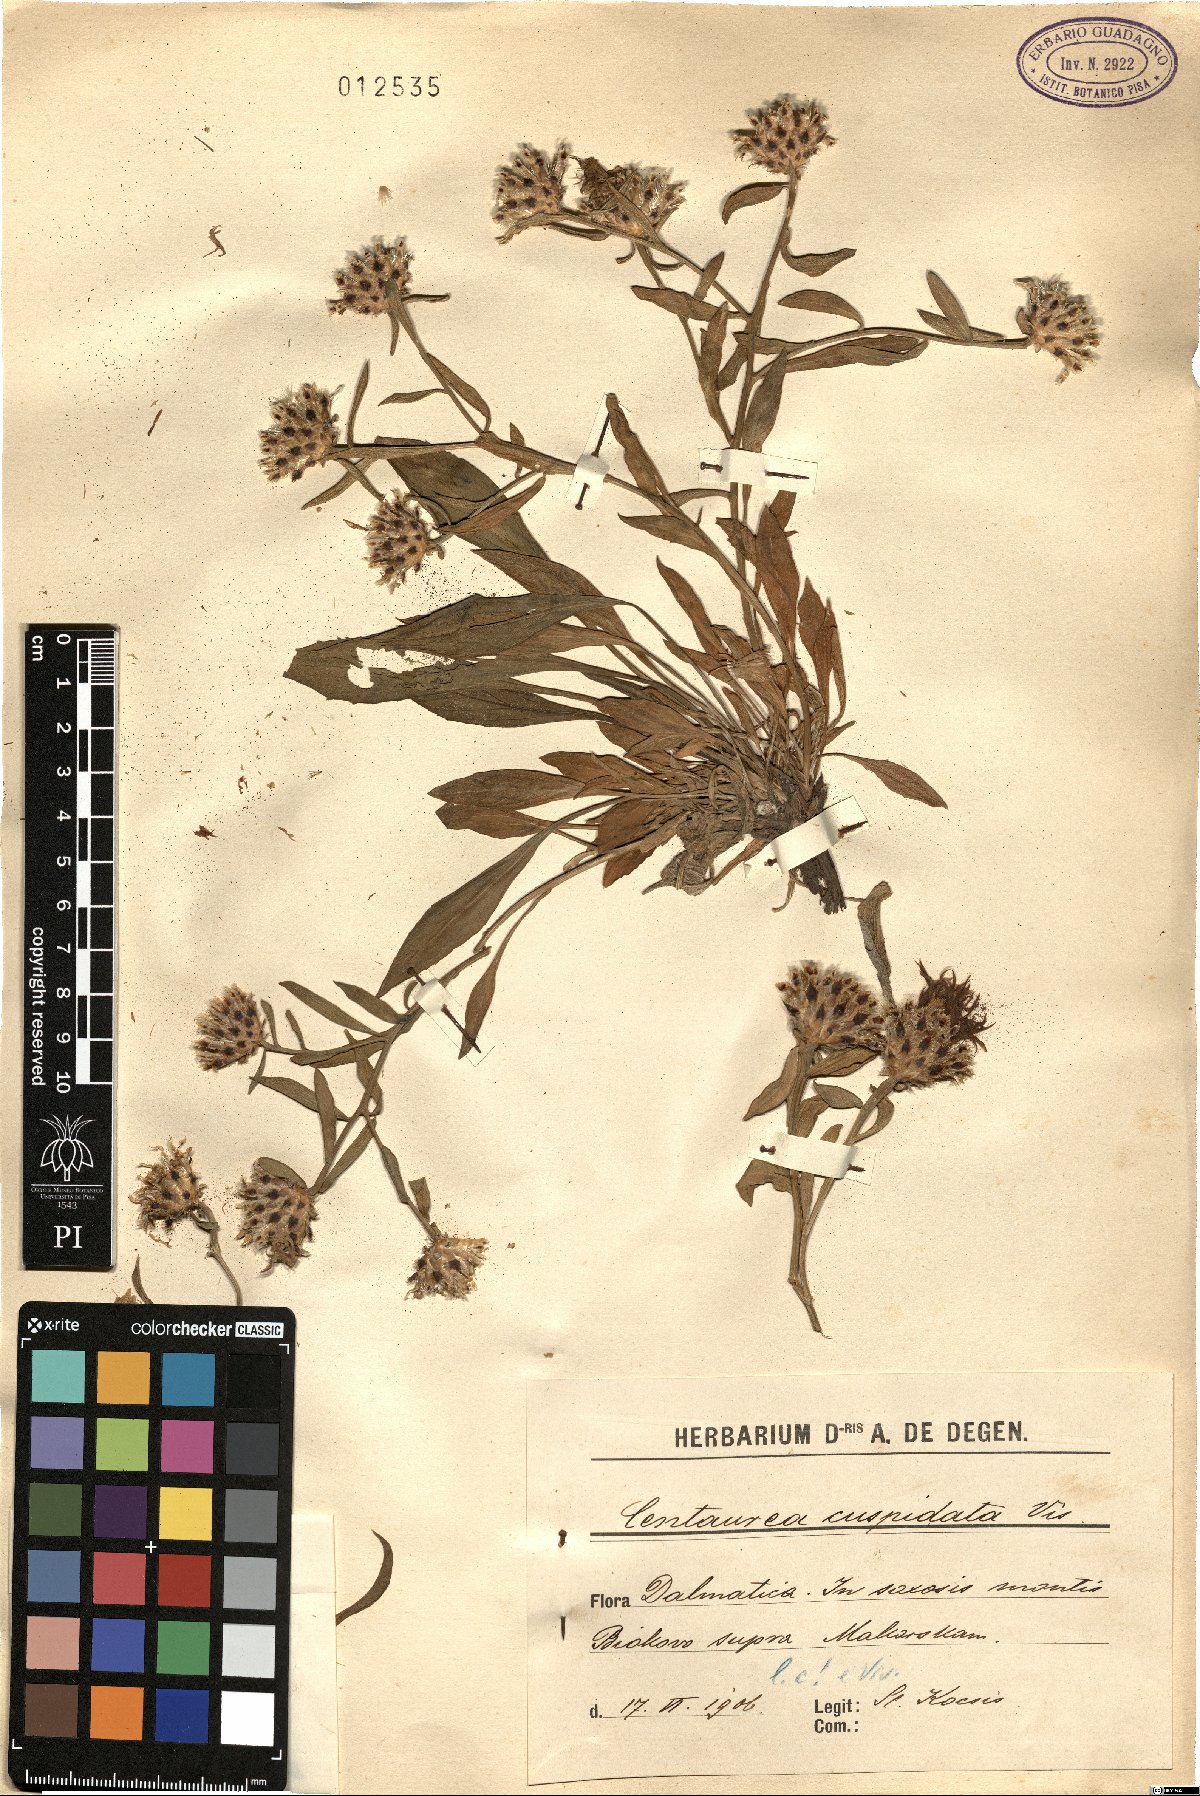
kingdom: Plantae
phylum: Tracheophyta
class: Magnoliopsida
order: Asterales
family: Asteraceae
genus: Centaurea
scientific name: Centaurea cuspidata
